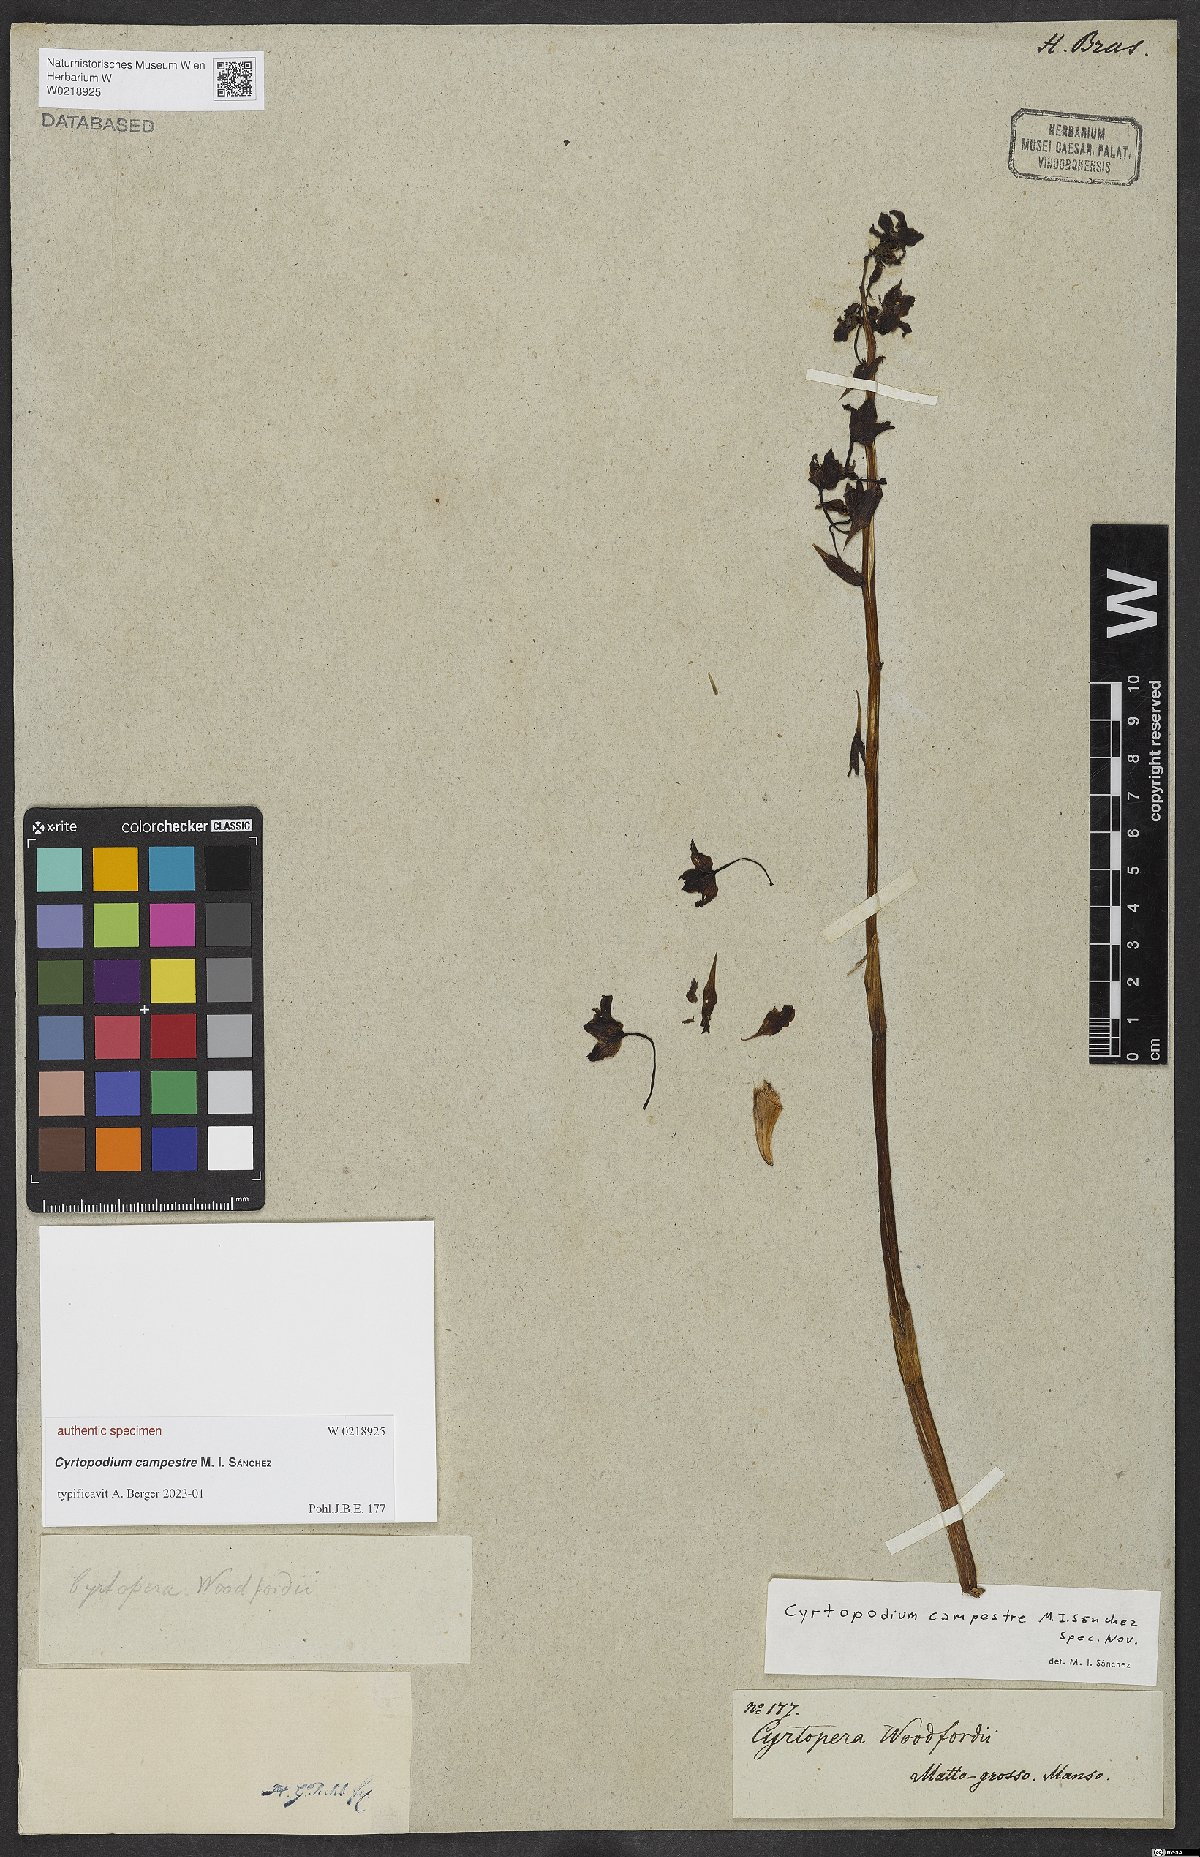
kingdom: Plantae
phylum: Tracheophyta
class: Liliopsida
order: Asparagales
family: Orchidaceae
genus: Cyrtopodium
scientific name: Cyrtopodium
